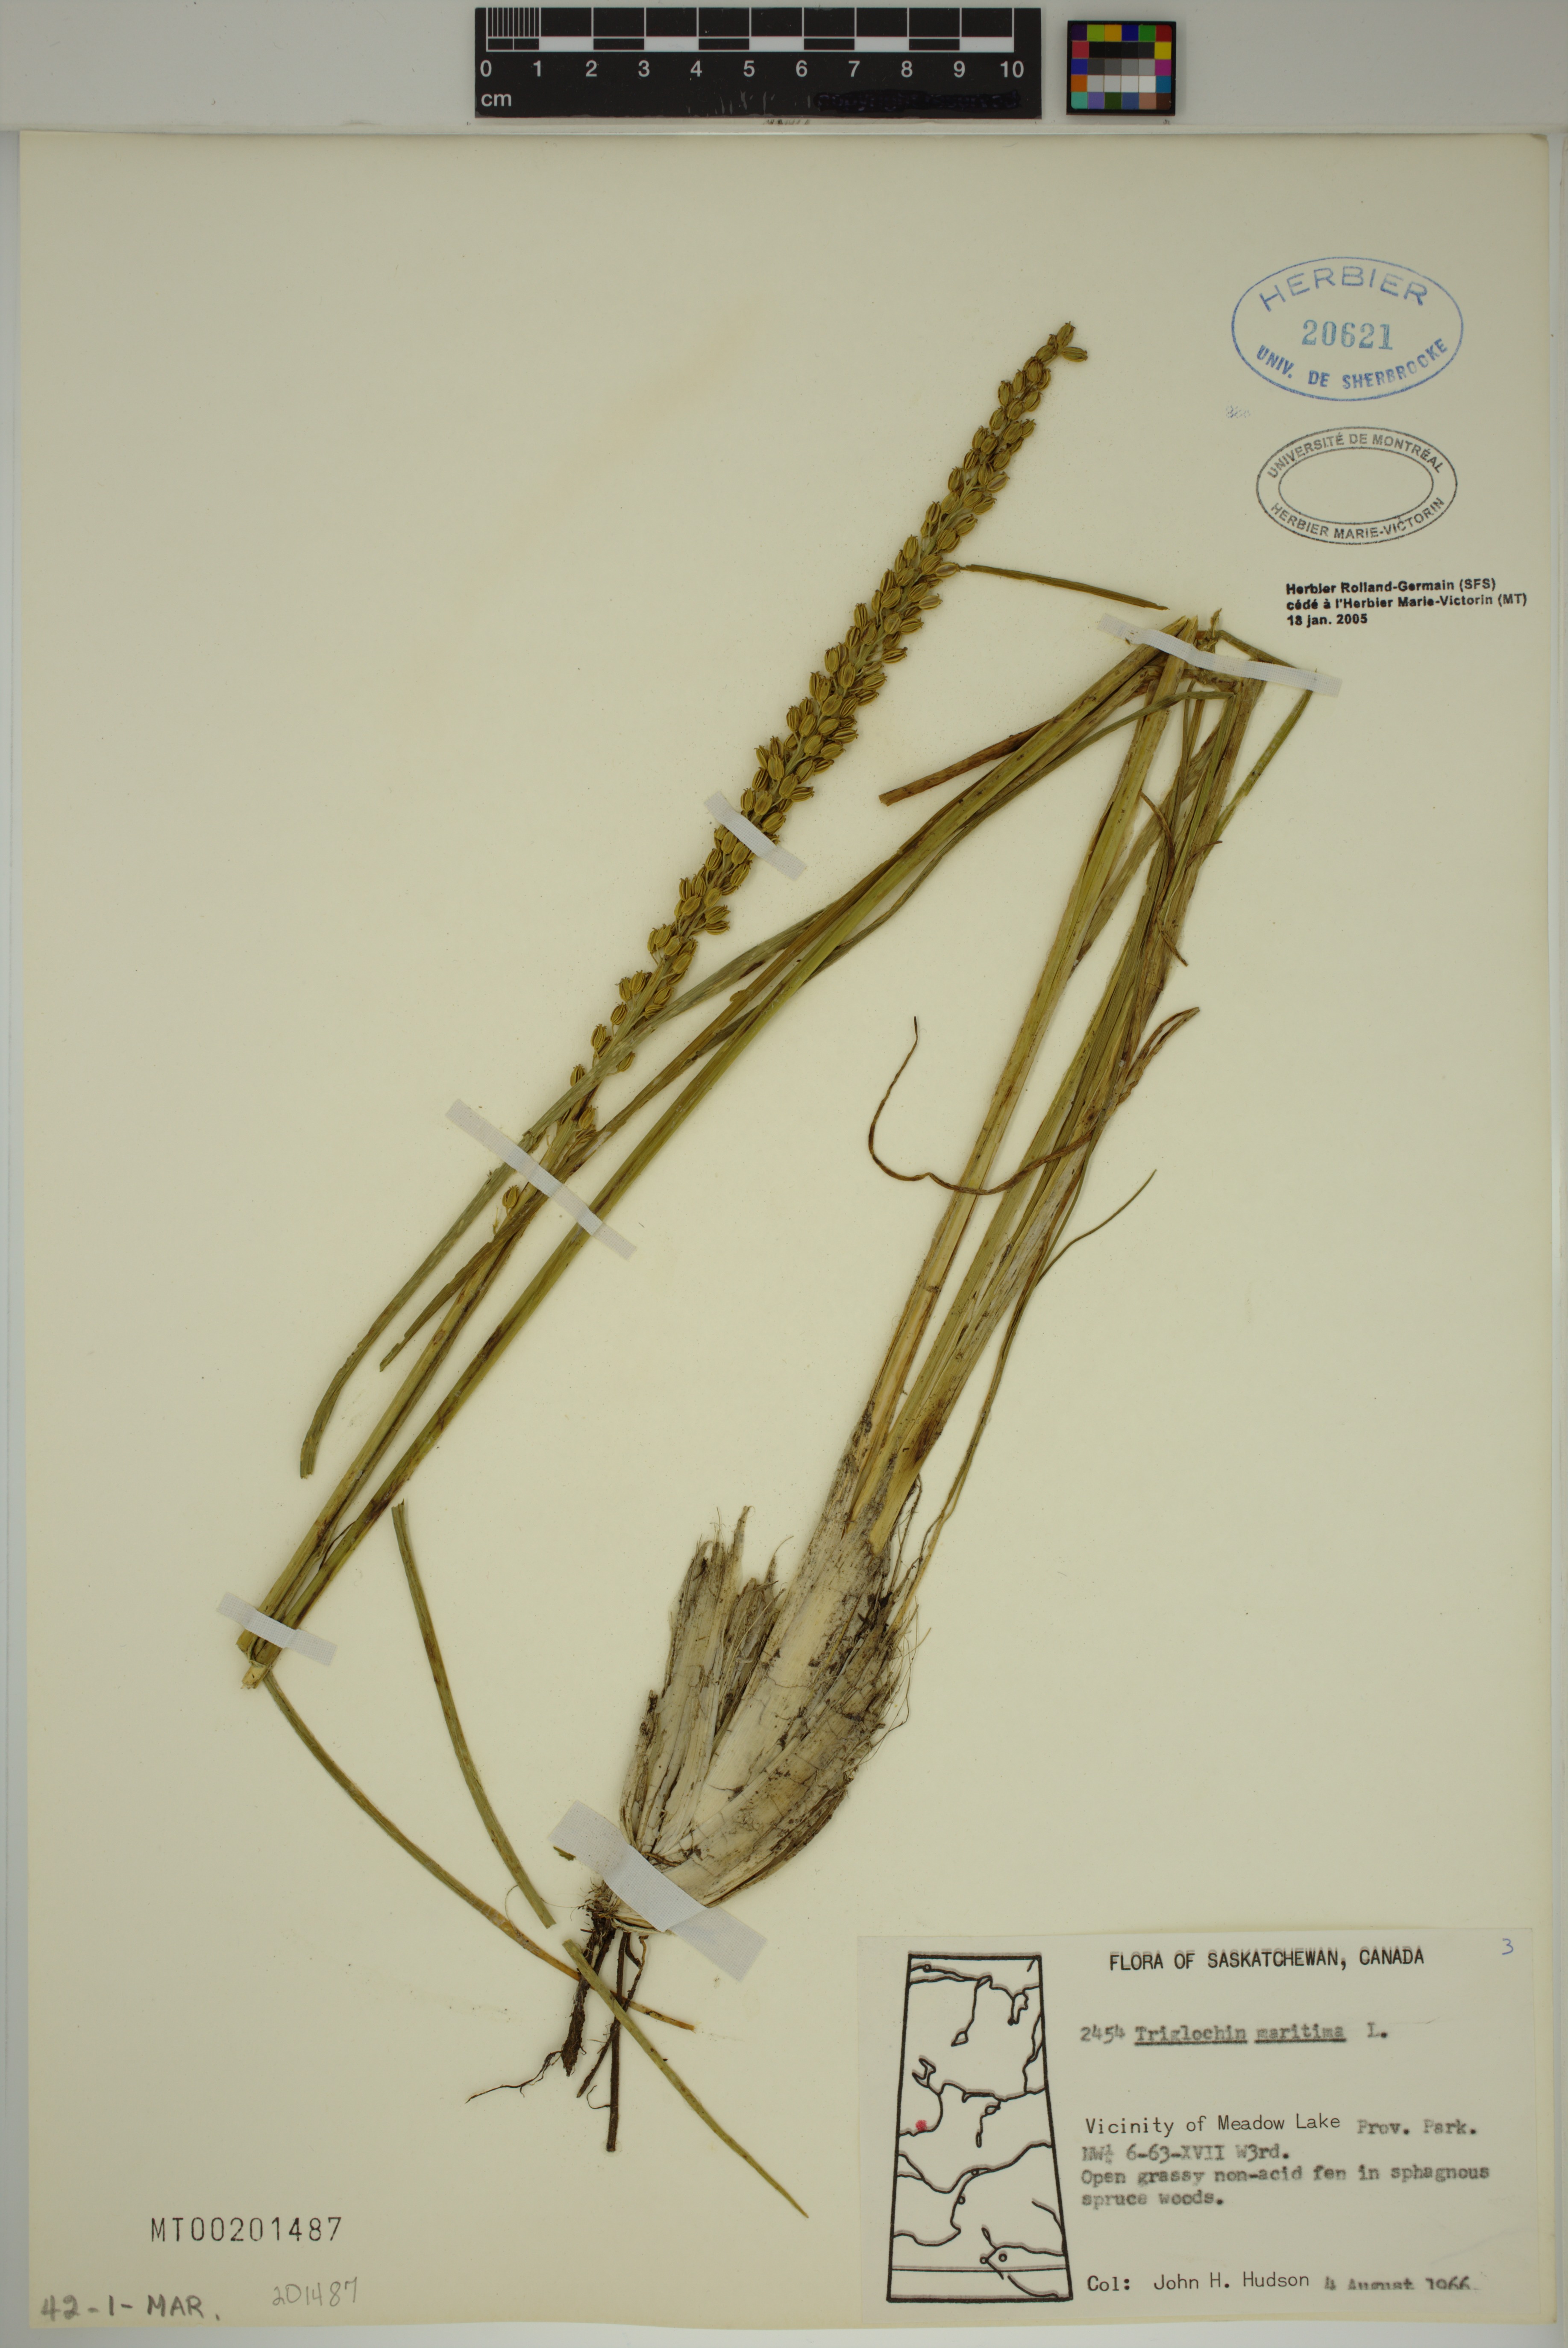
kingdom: Plantae
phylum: Tracheophyta
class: Liliopsida
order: Alismatales
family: Juncaginaceae
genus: Triglochin
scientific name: Triglochin maritima
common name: Sea arrowgrass
